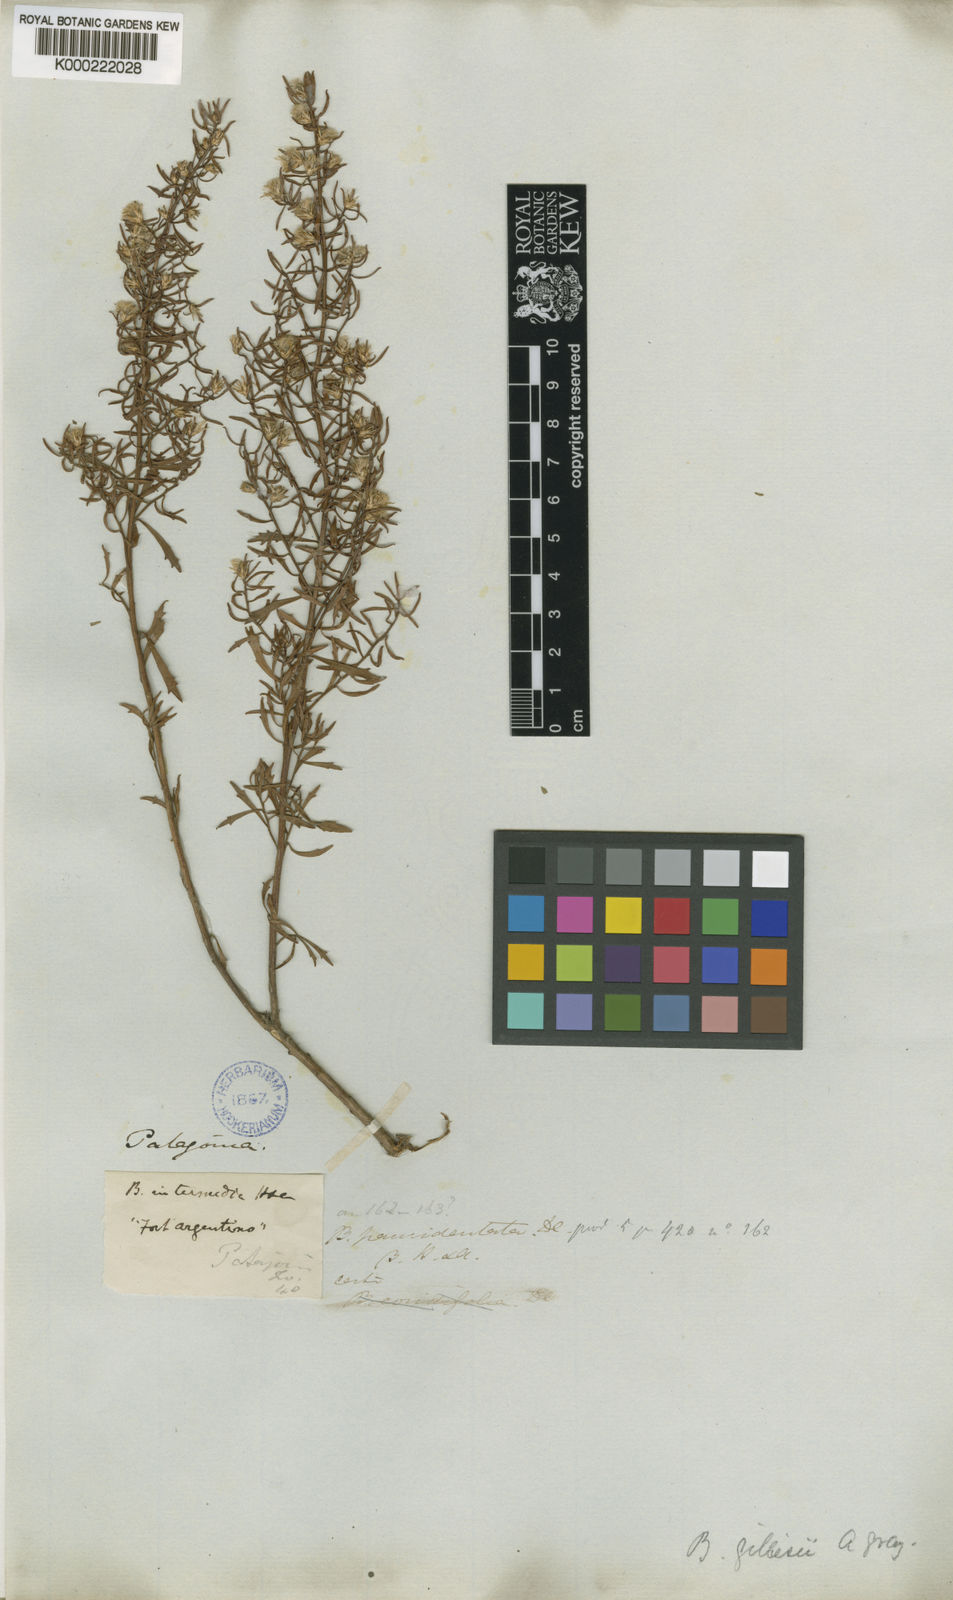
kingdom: Plantae
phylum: Tracheophyta
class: Magnoliopsida
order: Asterales
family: Asteraceae
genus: Baccharis
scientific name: Baccharis gilliesii
